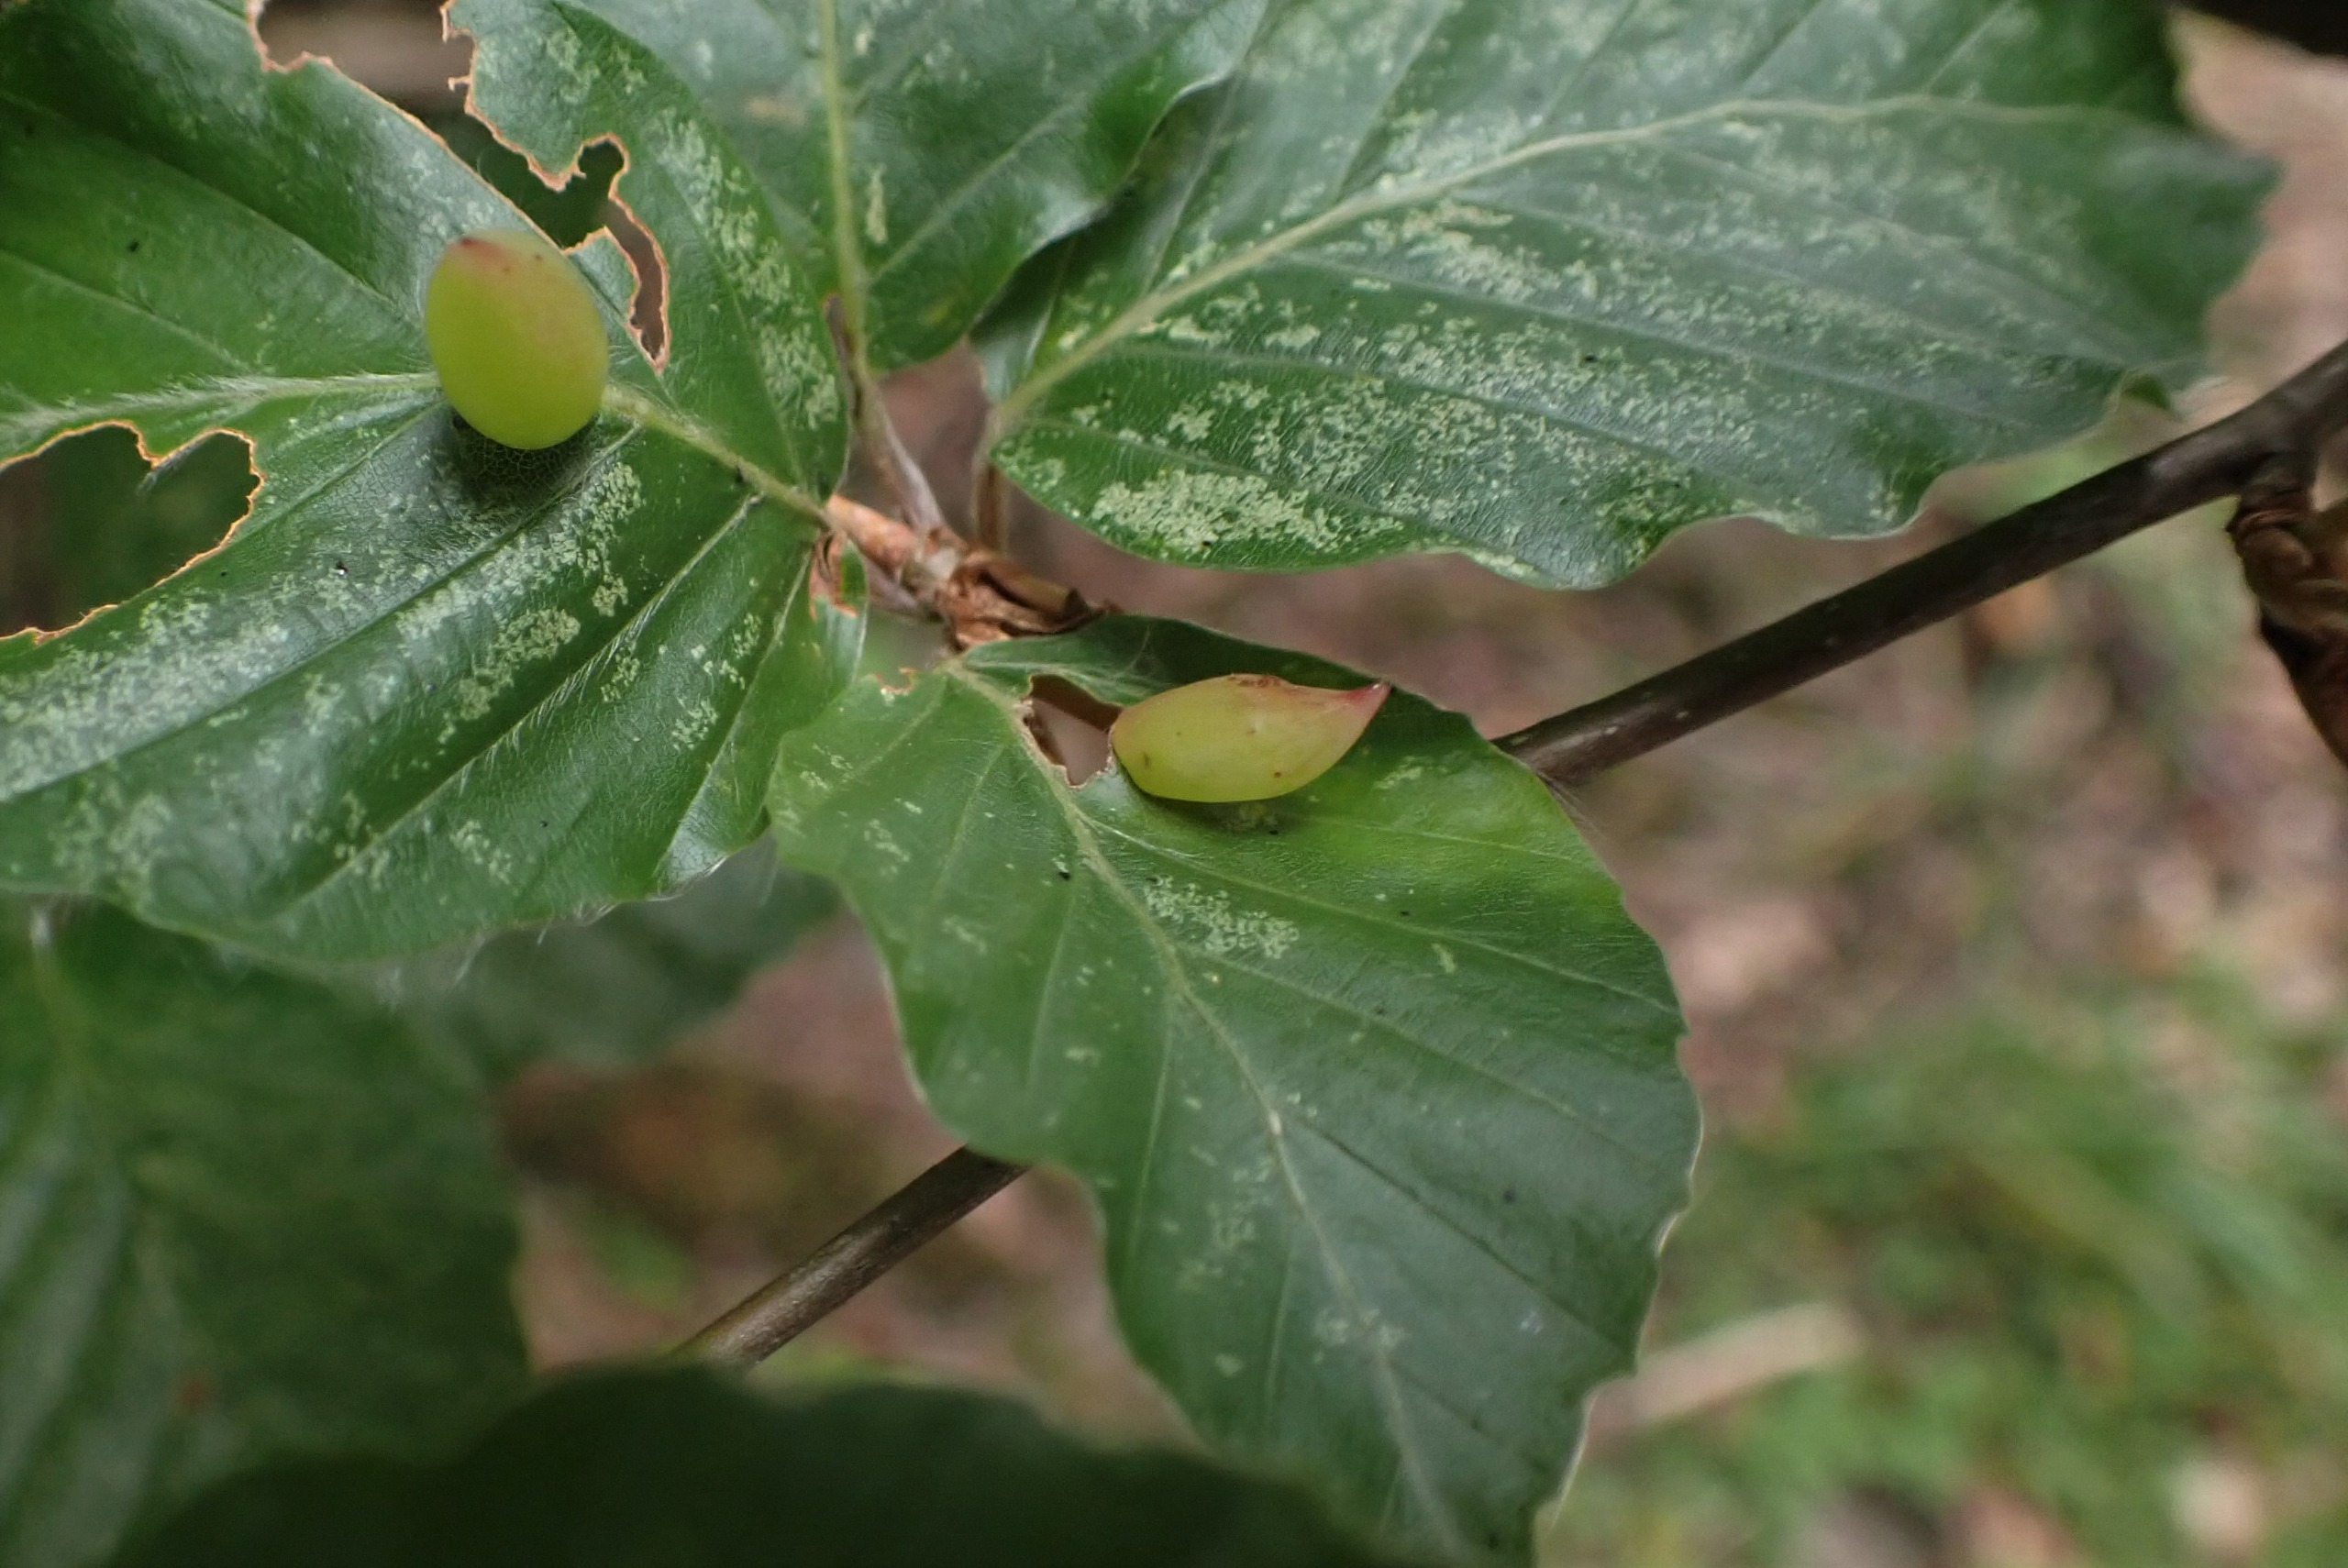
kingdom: Animalia
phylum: Arthropoda
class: Insecta
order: Diptera
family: Cecidomyiidae
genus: Mikiola
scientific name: Mikiola fagi
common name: Bøgegalmyg
